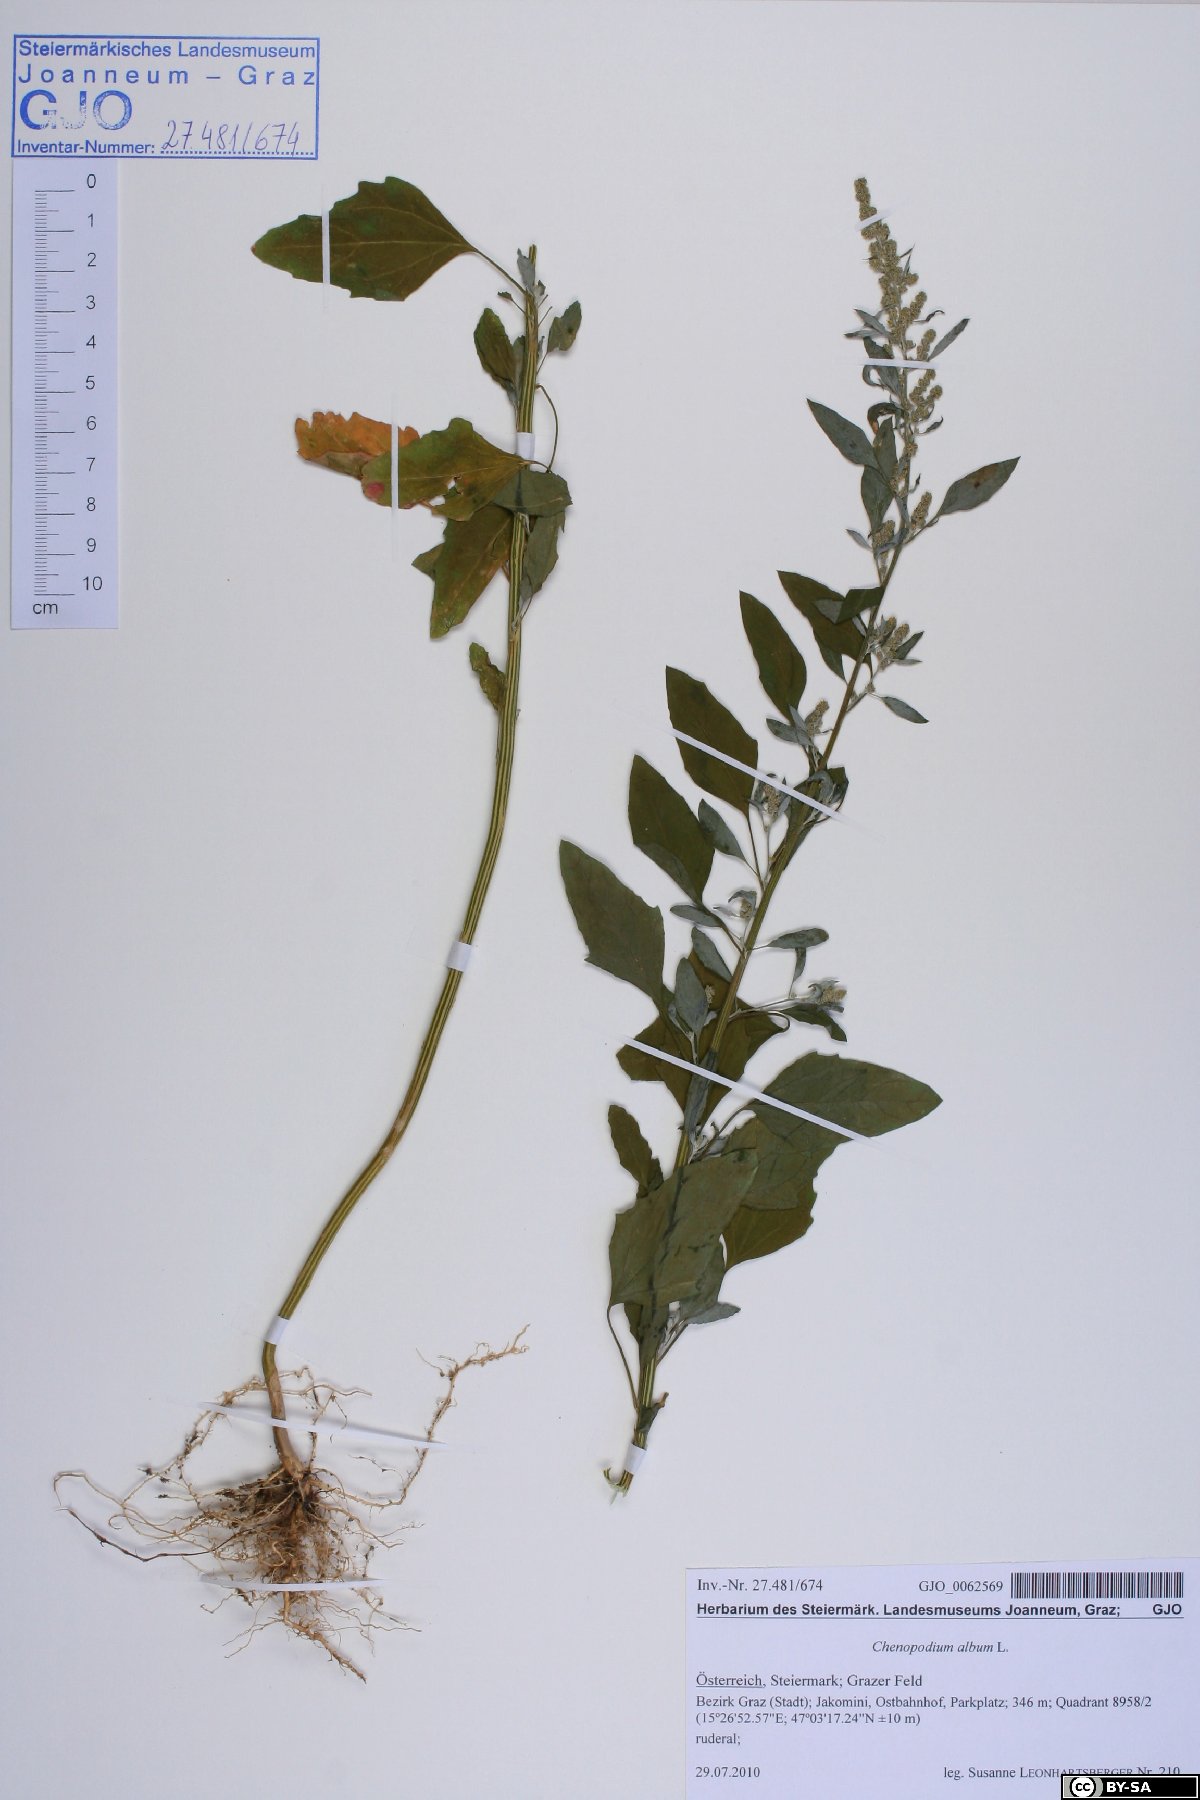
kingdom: Plantae
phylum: Tracheophyta
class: Magnoliopsida
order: Caryophyllales
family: Amaranthaceae
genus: Chenopodium
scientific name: Chenopodium album
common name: Fat-hen
